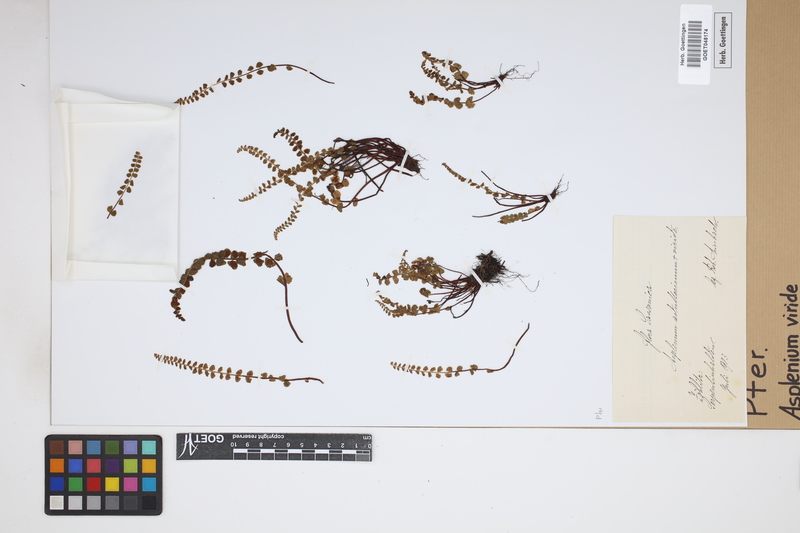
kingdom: Plantae
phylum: Tracheophyta
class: Polypodiopsida
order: Polypodiales
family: Aspleniaceae
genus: Asplenium
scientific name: Asplenium viride
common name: Green spleenwort
